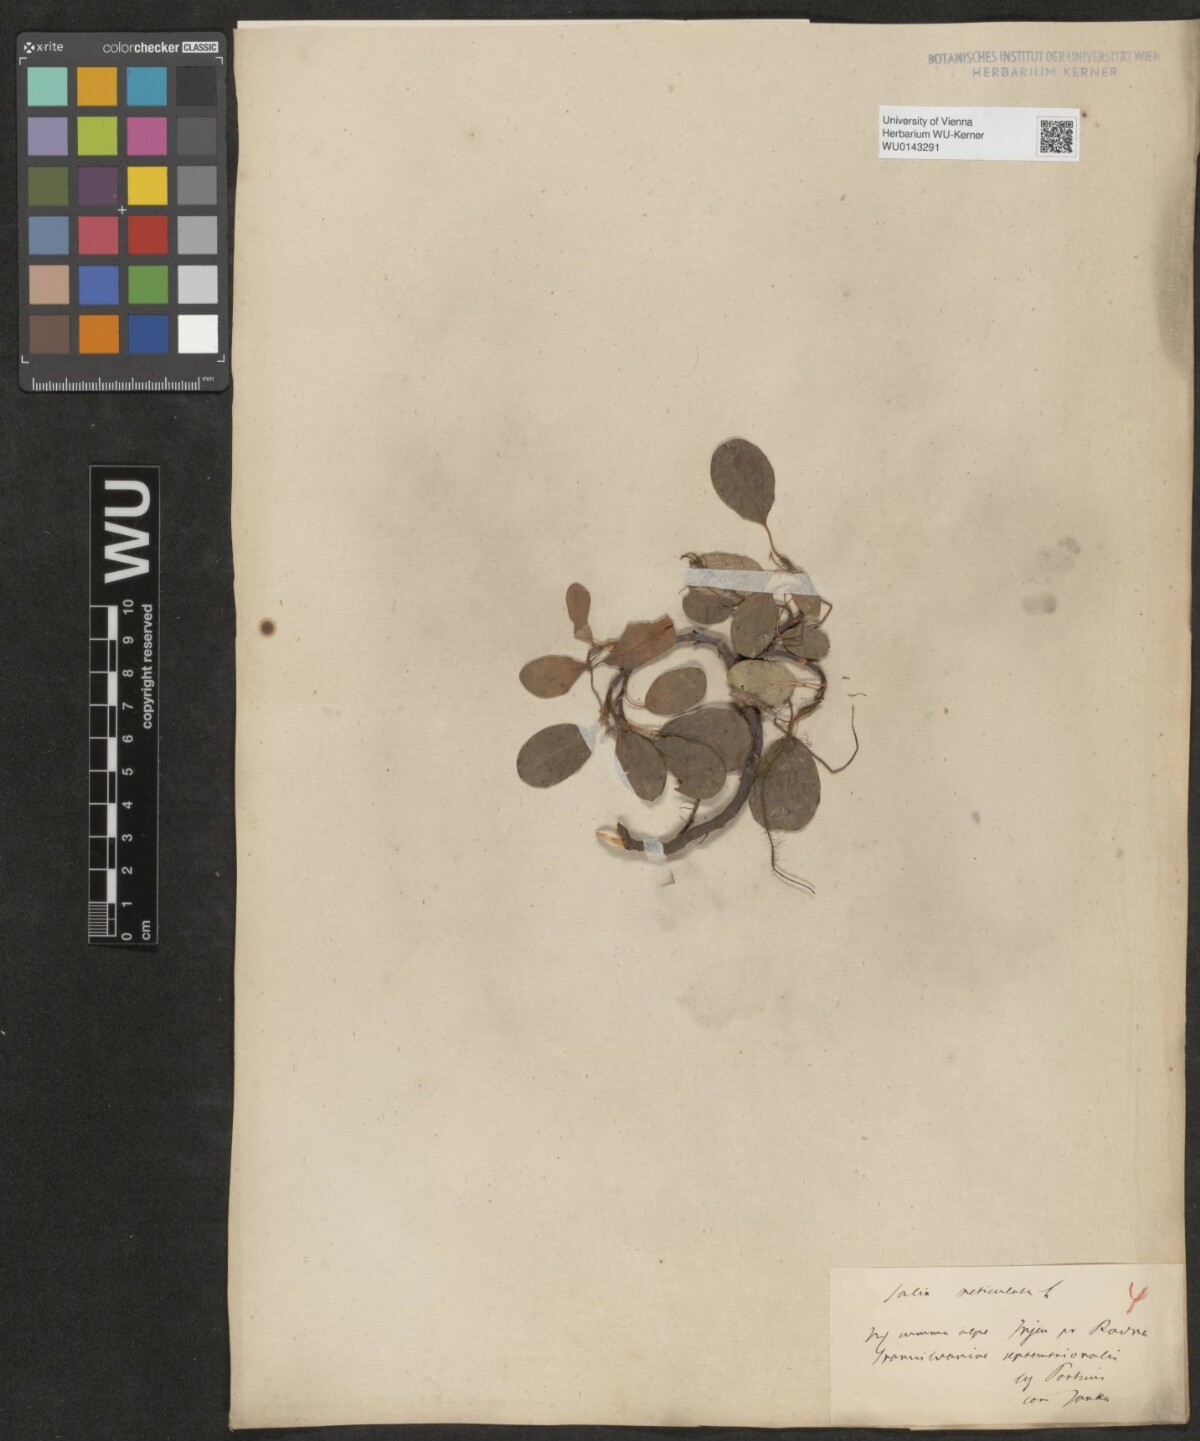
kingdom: Plantae
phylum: Tracheophyta
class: Magnoliopsida
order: Malpighiales
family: Salicaceae
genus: Salix
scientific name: Salix reticulata
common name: Net-leaved willow
